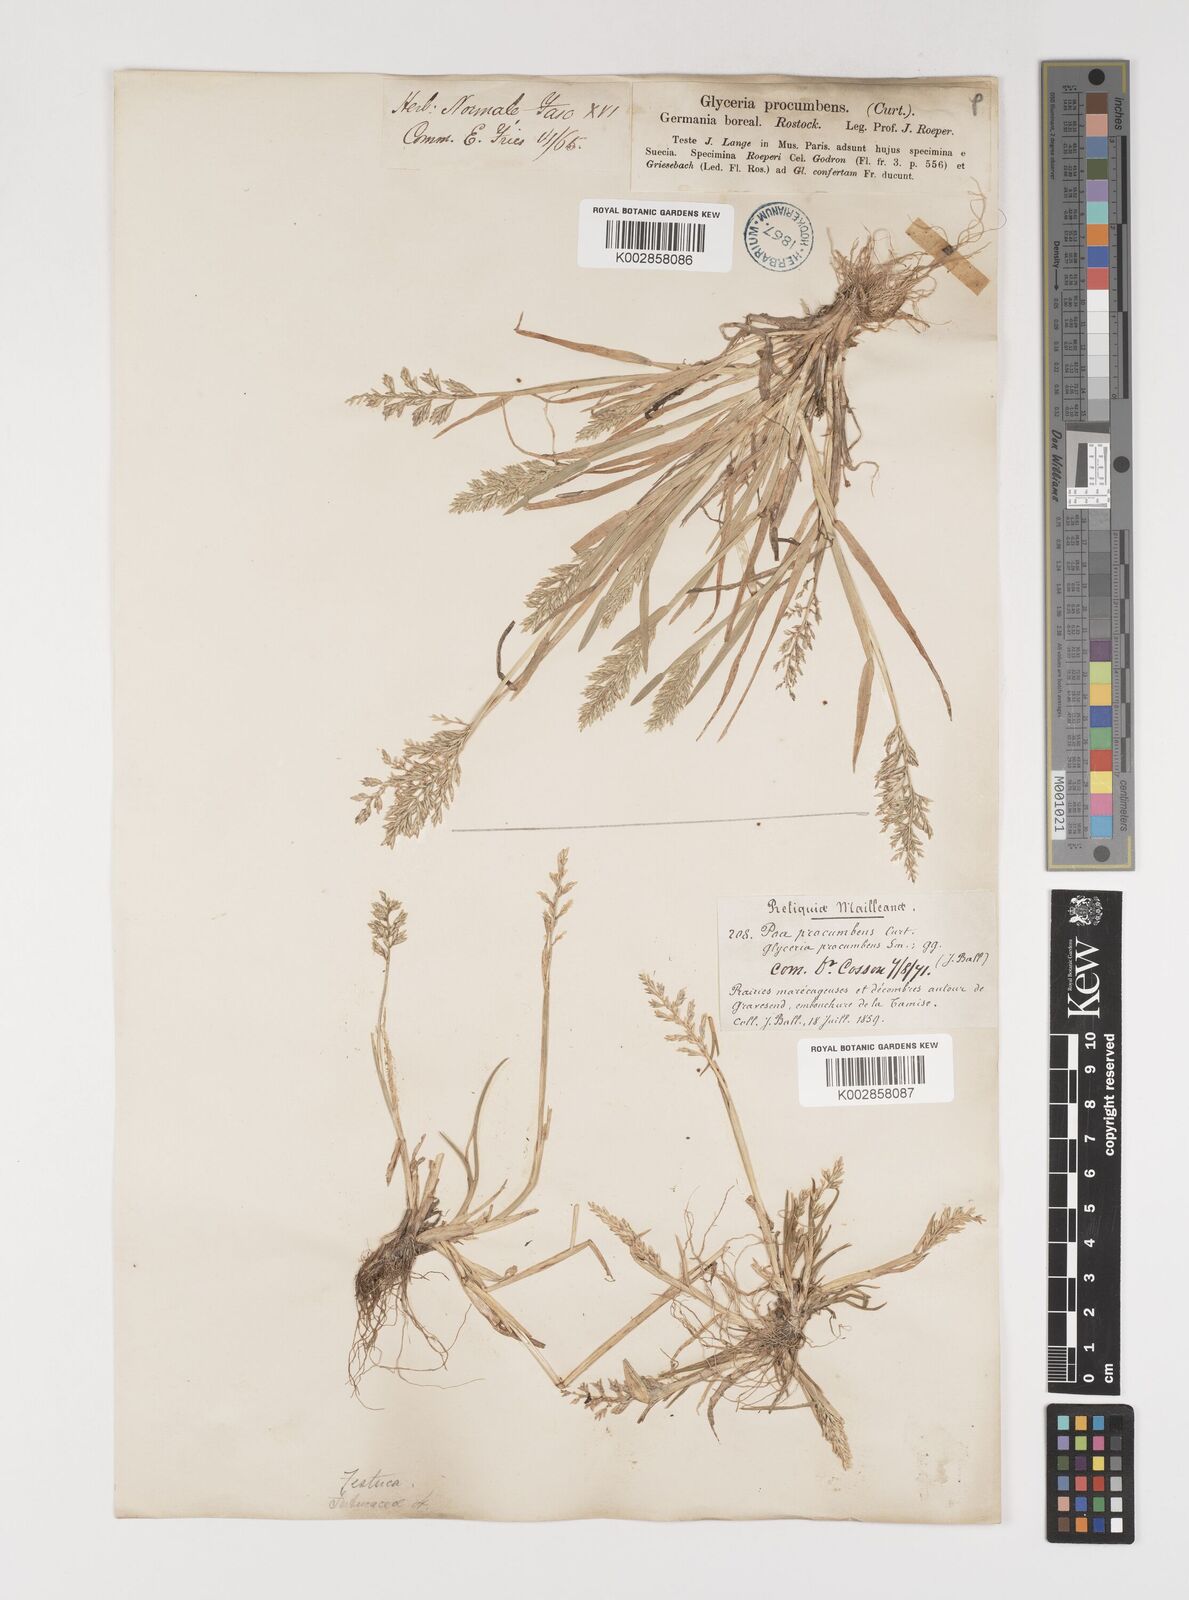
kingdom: Plantae
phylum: Tracheophyta
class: Liliopsida
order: Poales
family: Poaceae
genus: Puccinellia
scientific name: Puccinellia rupestris
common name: Stiff saltmarsh-grass
